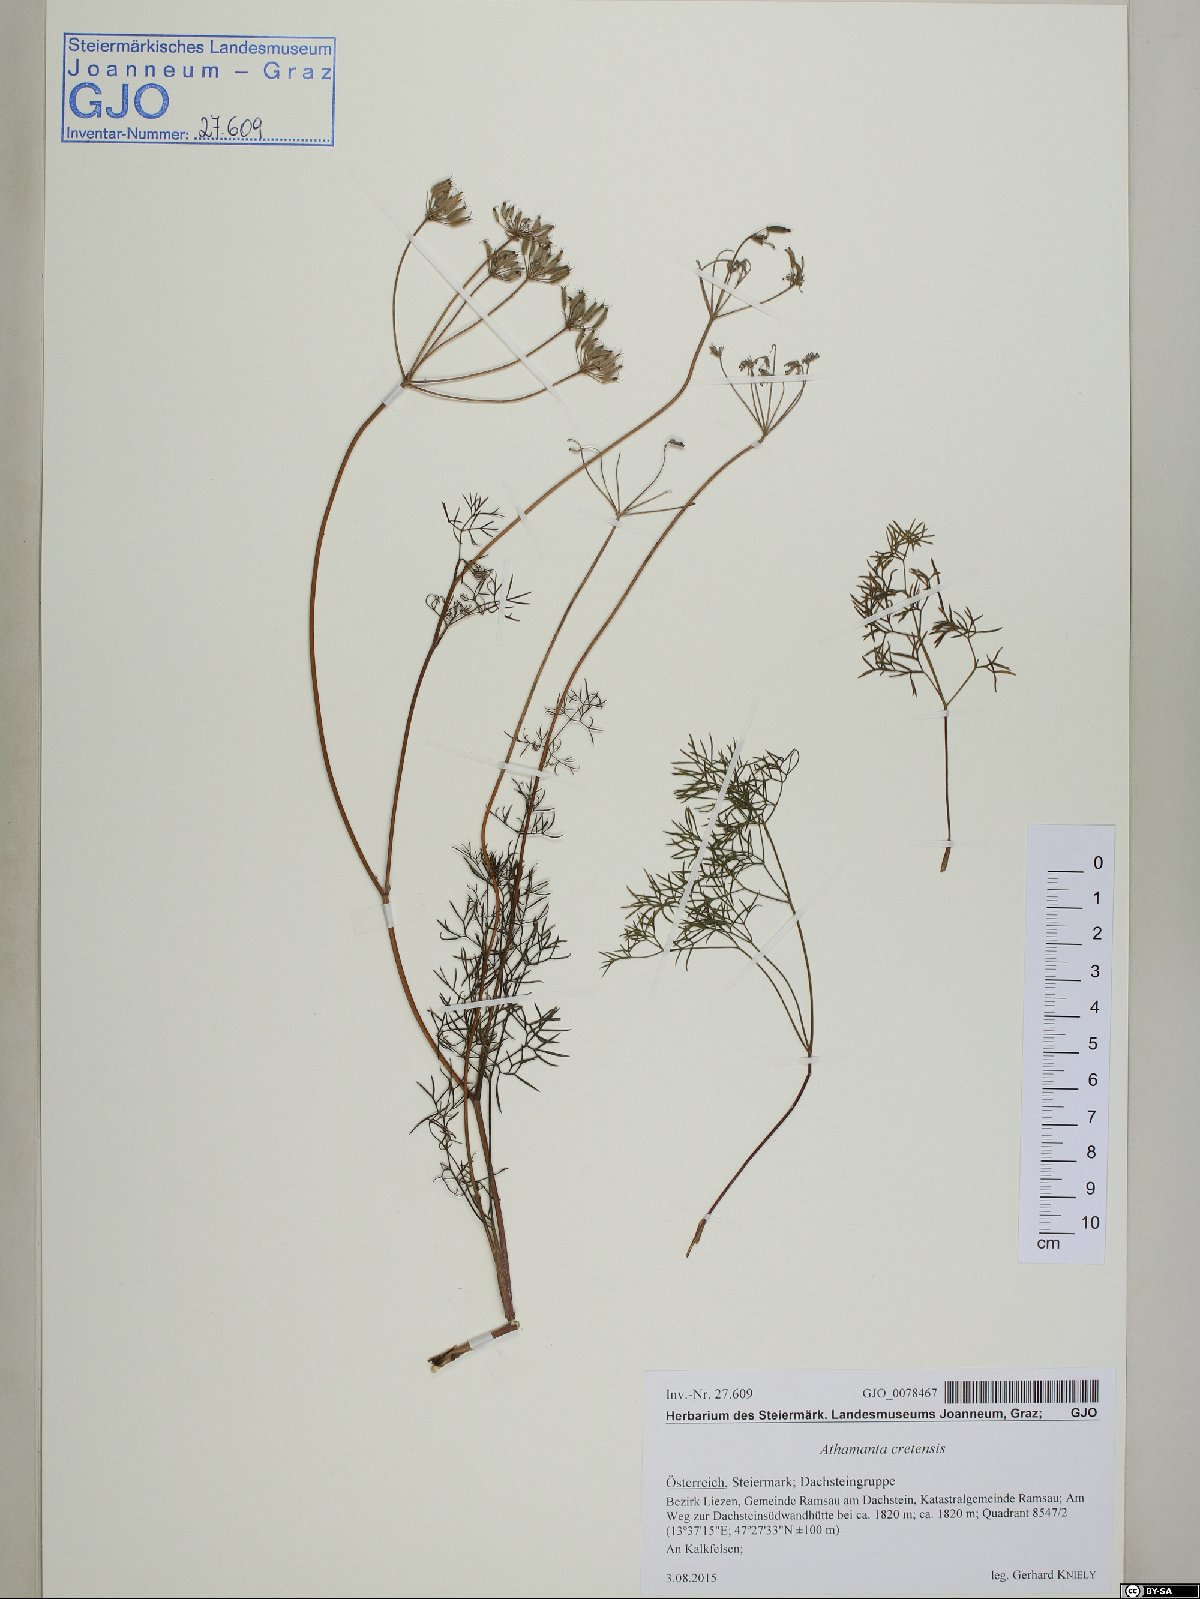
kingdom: Plantae
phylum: Tracheophyta
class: Magnoliopsida
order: Apiales
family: Apiaceae
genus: Athamanta
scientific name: Athamanta cretensis
